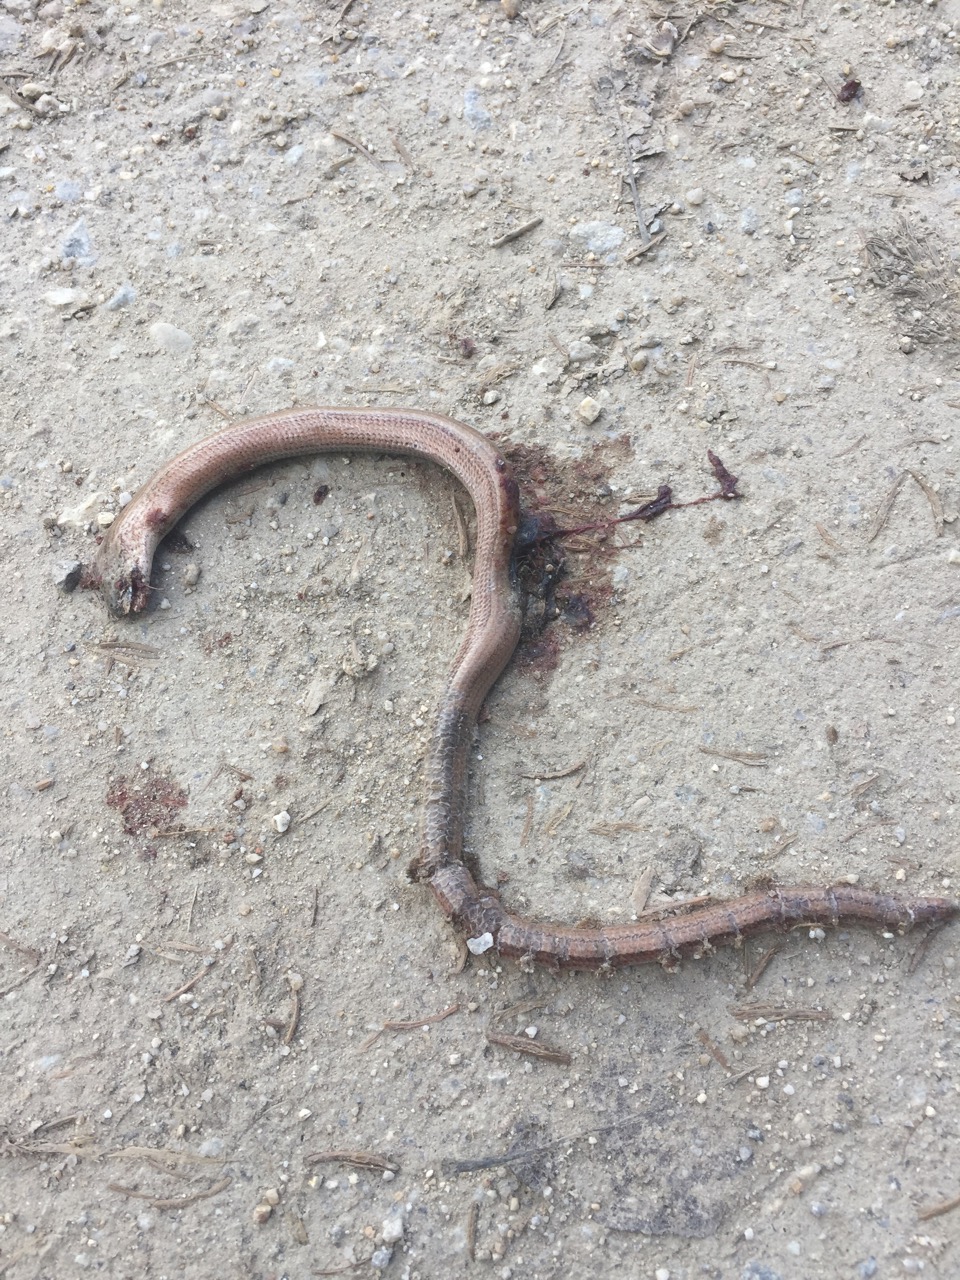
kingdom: Animalia
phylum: Chordata
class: Squamata
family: Anguidae
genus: Anguis
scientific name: Anguis fragilis
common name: Slow worm
